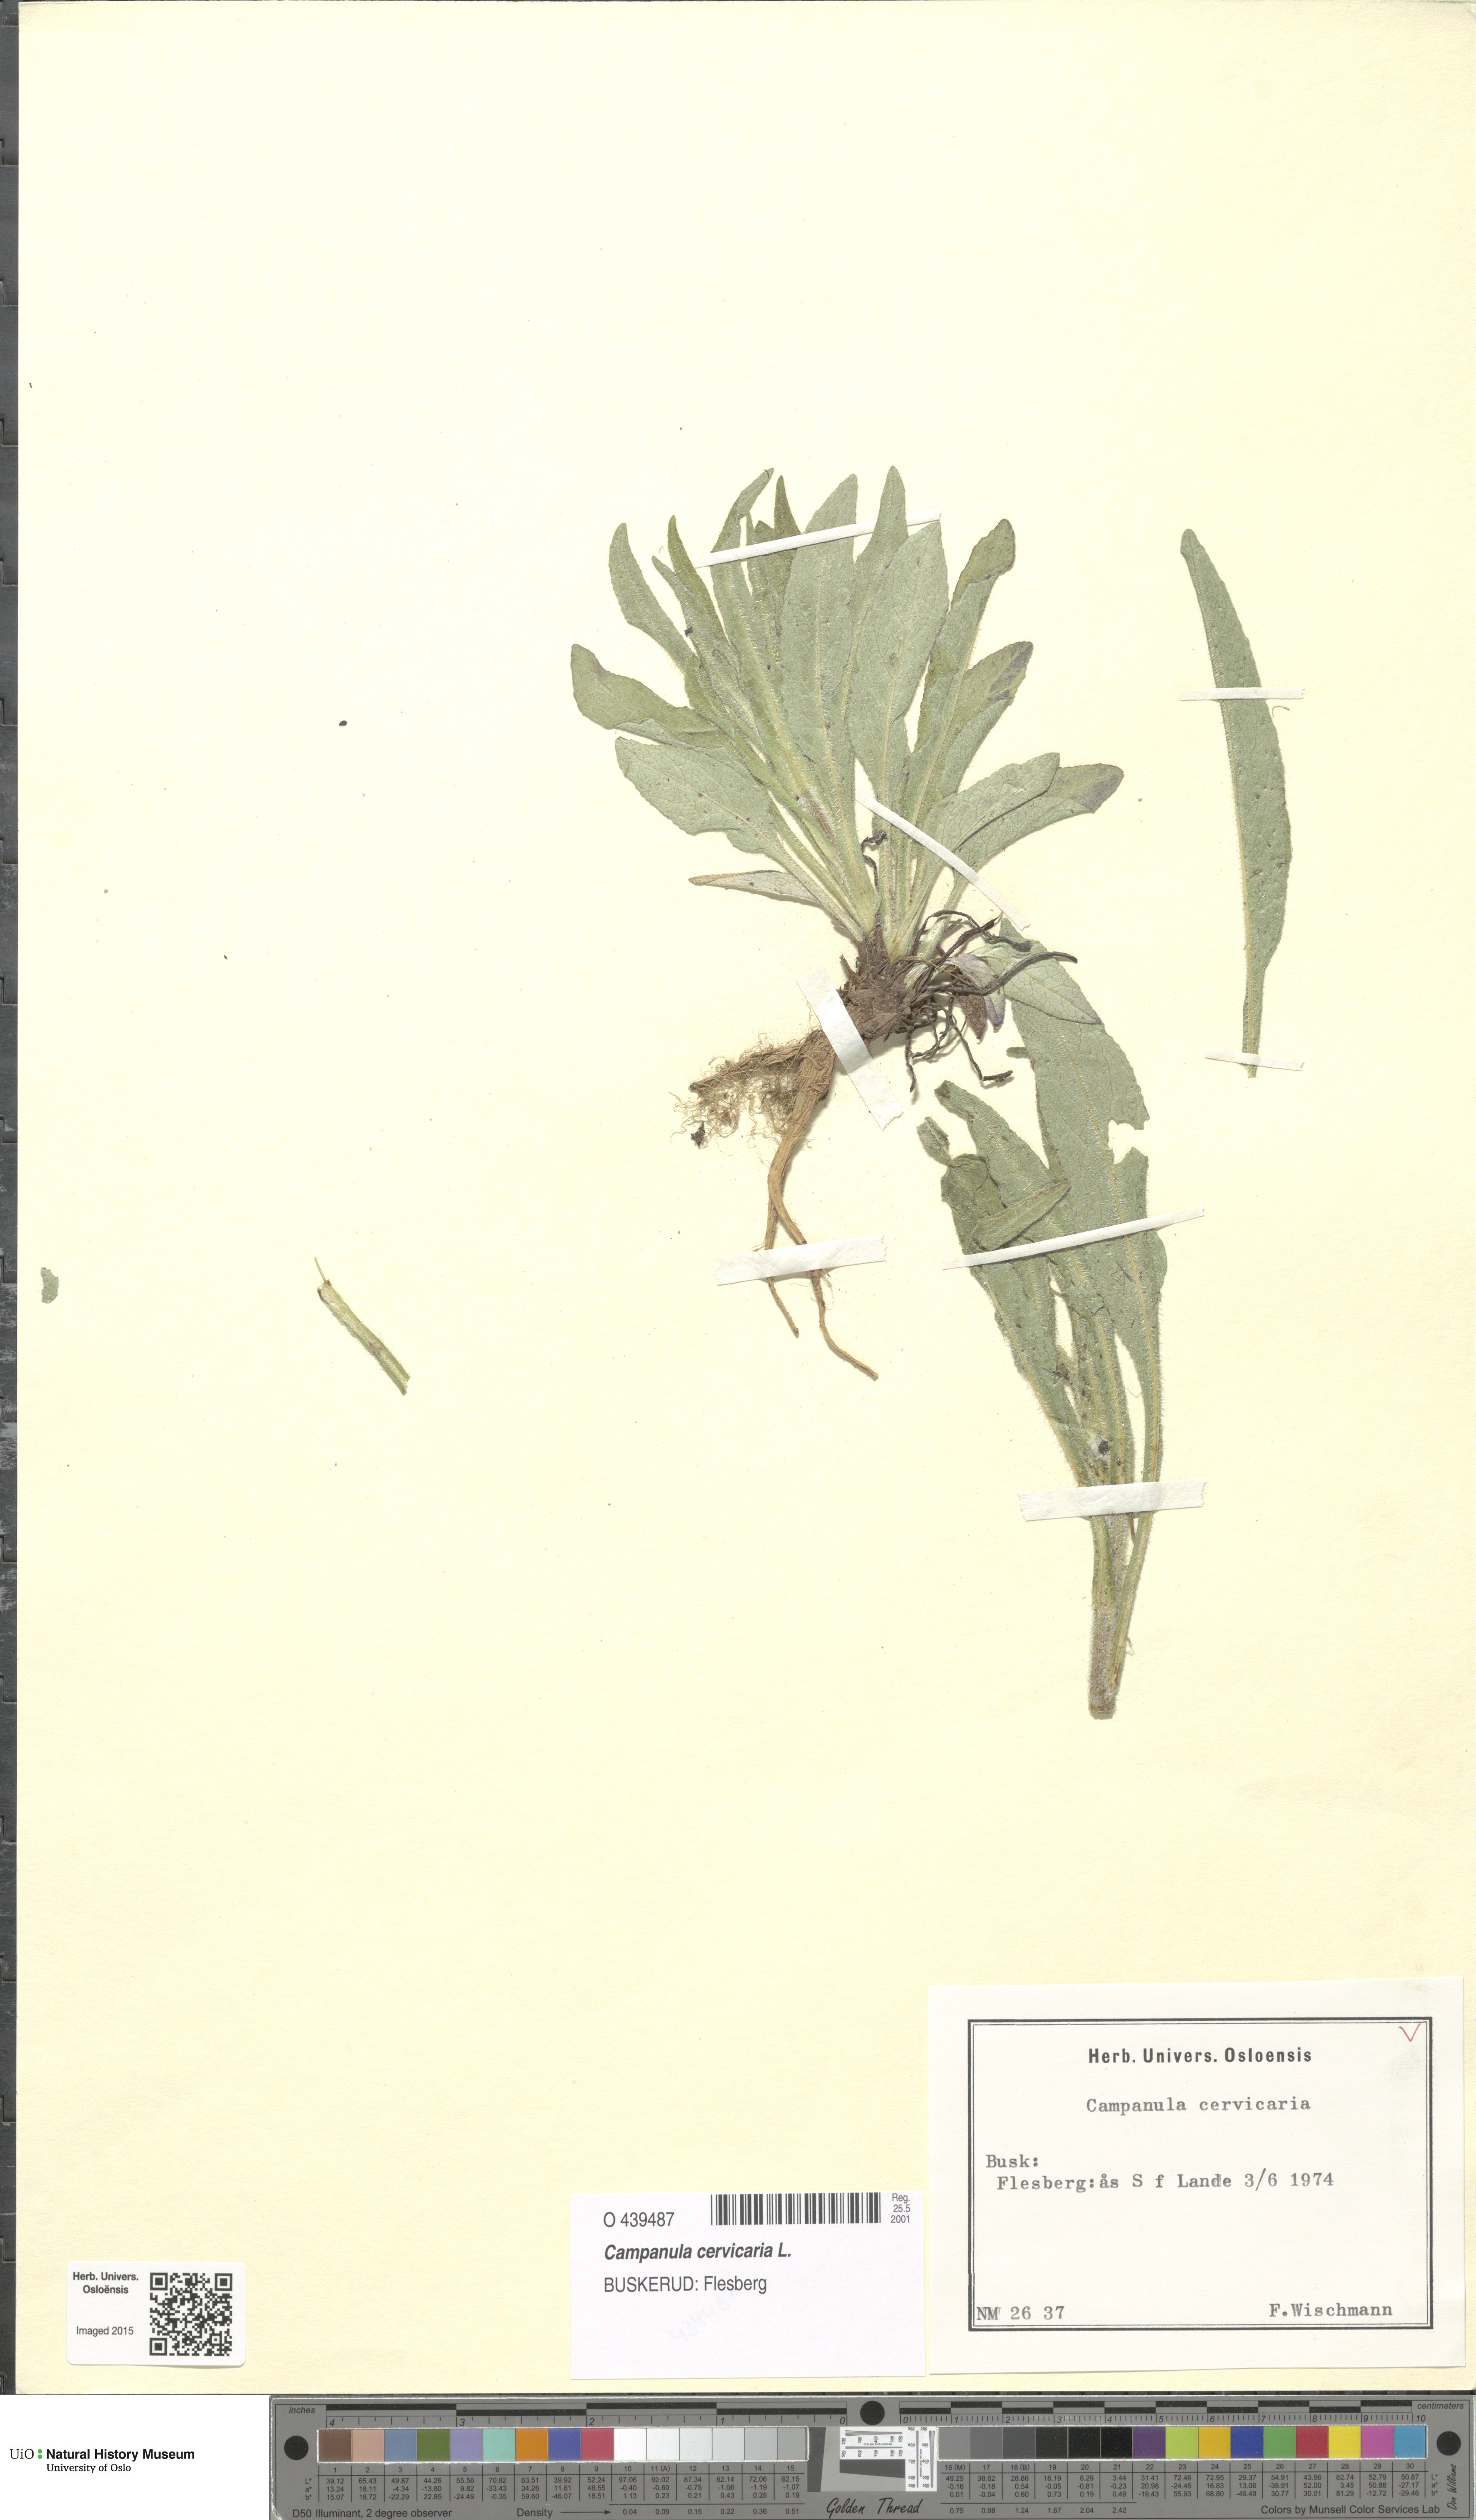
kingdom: Plantae
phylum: Tracheophyta
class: Magnoliopsida
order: Asterales
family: Campanulaceae
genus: Campanula
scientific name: Campanula cervicaria
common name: Bristly bellflower
